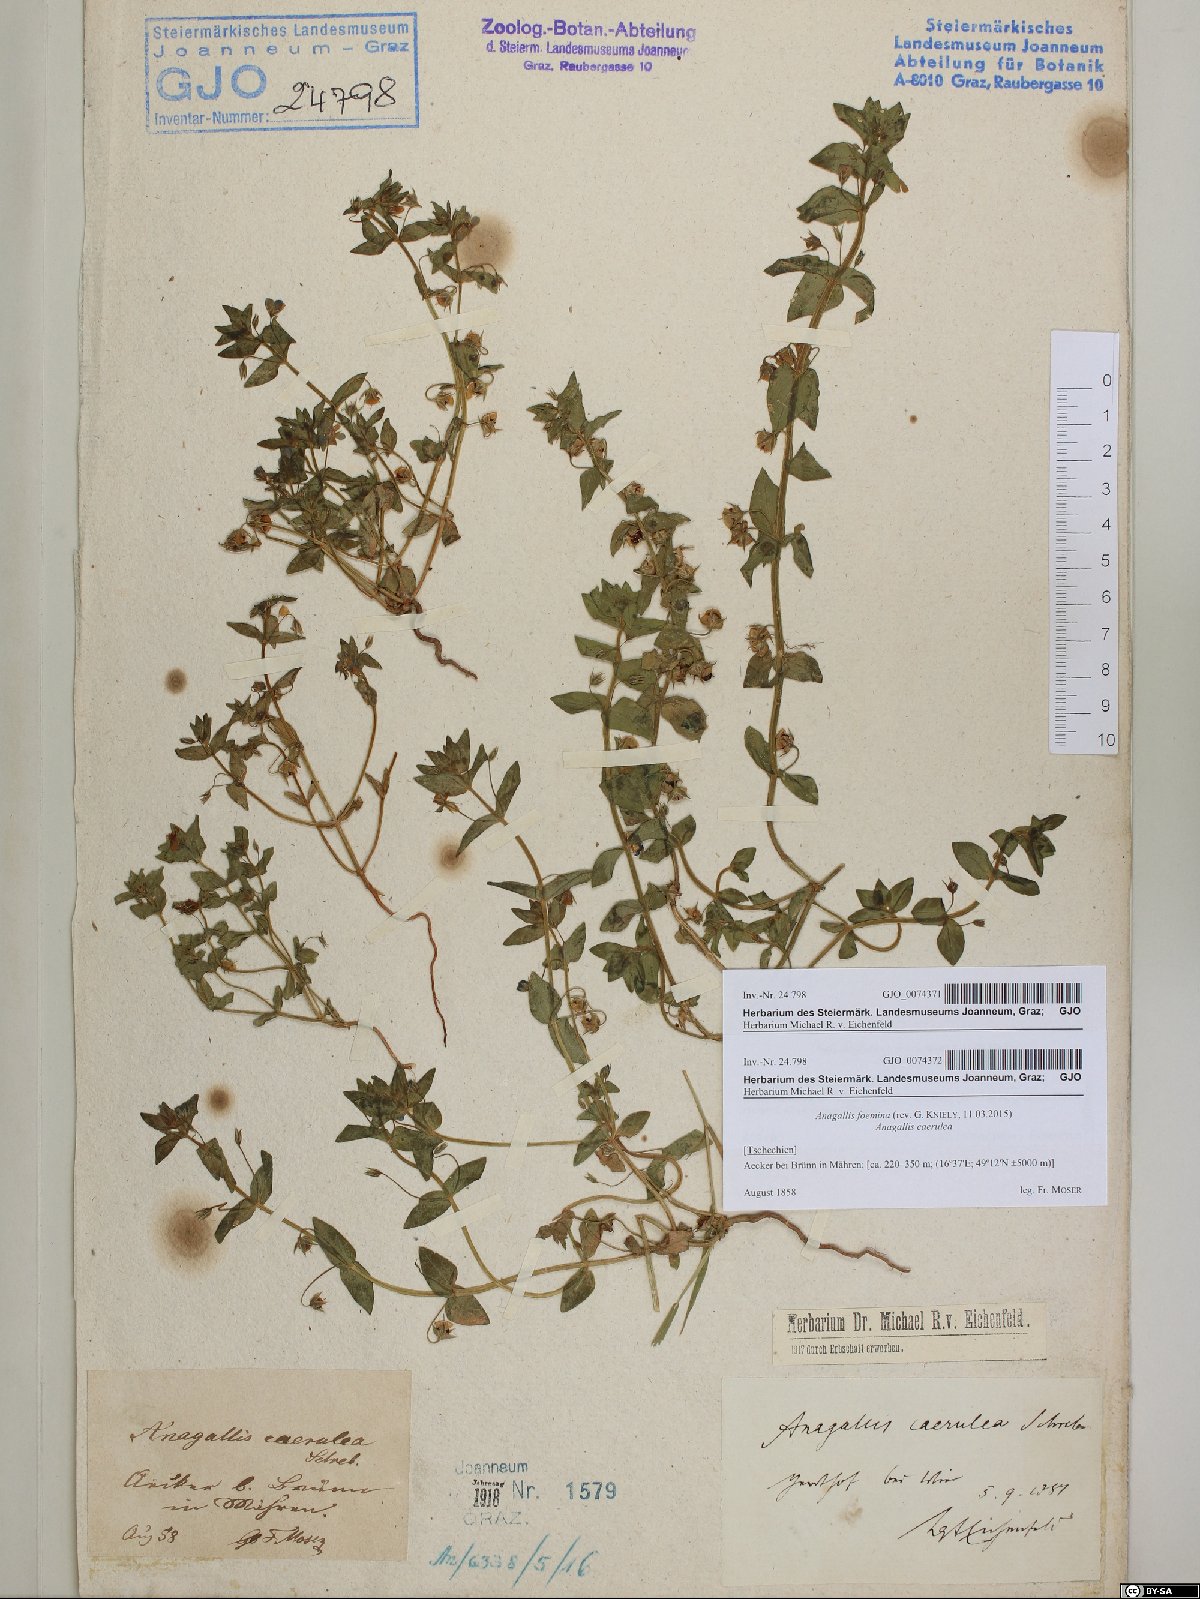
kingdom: Plantae
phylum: Tracheophyta
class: Magnoliopsida
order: Ericales
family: Primulaceae
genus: Lysimachia
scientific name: Lysimachia foemina
